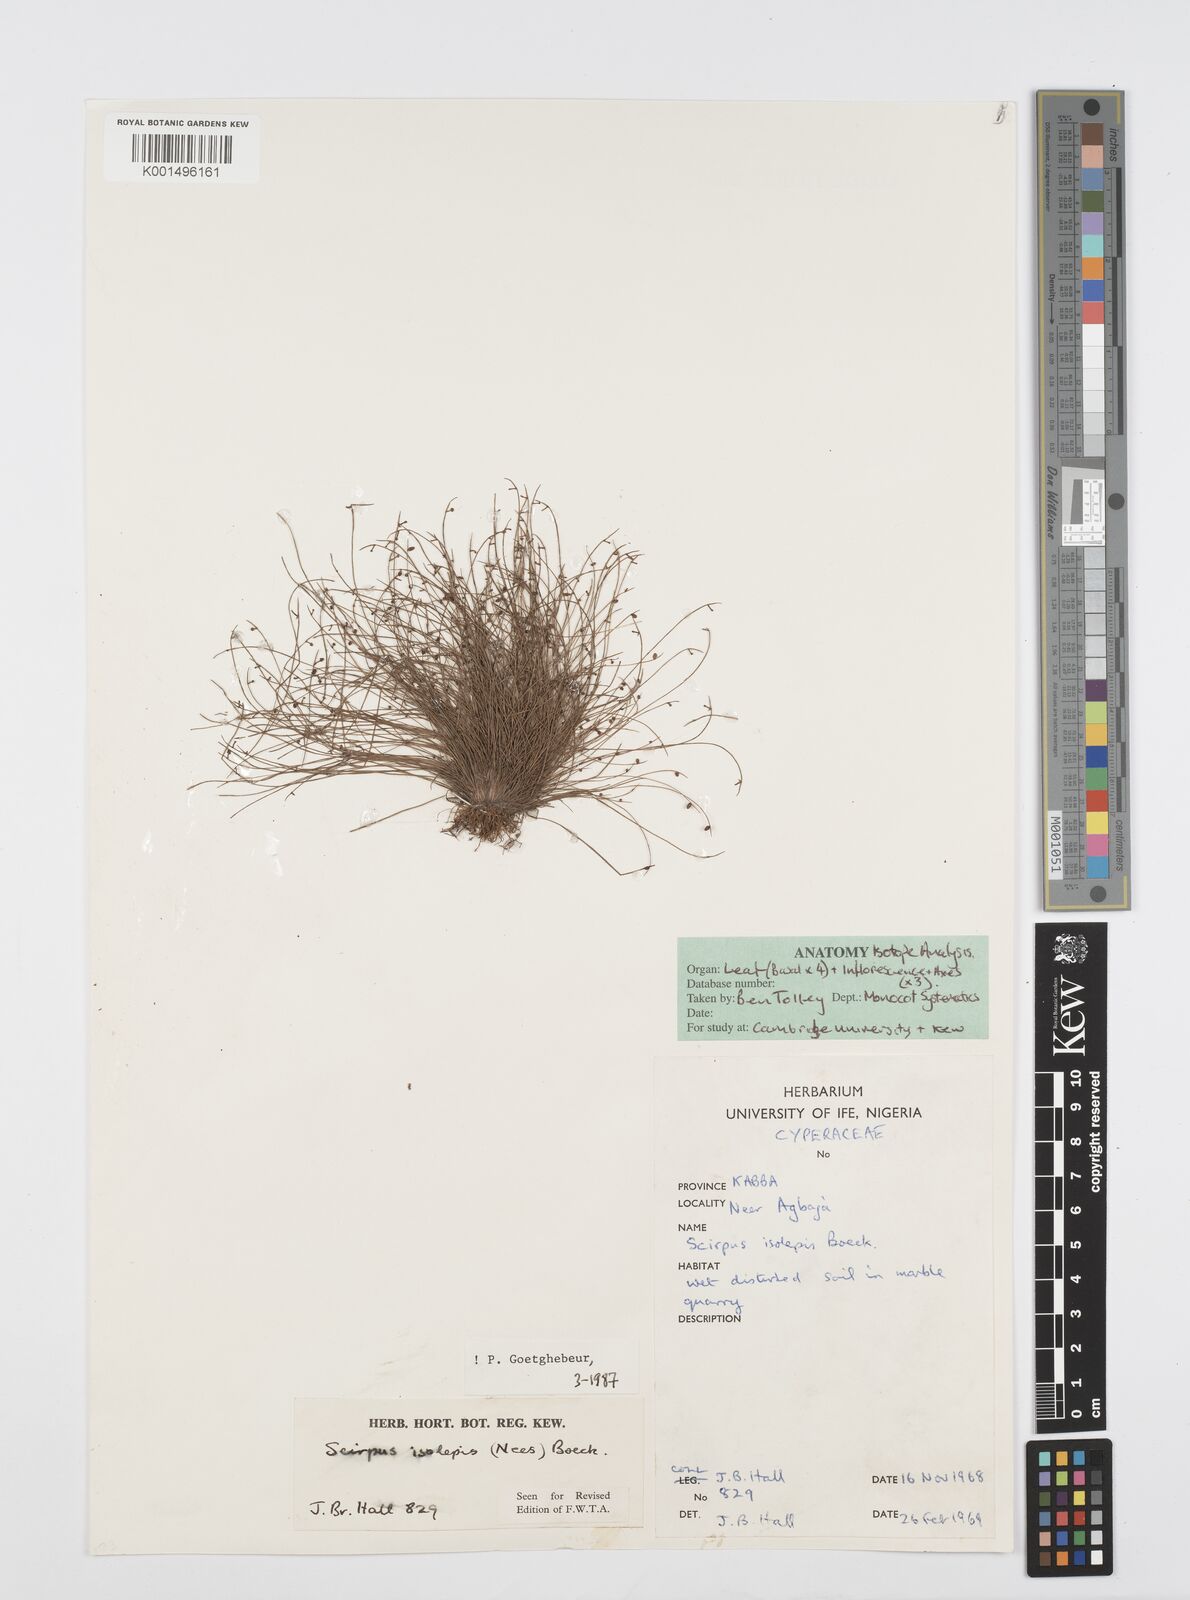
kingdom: Plantae
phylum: Tracheophyta
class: Liliopsida
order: Poales
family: Cyperaceae
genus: Cyperus
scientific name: Cyperus isolepis
